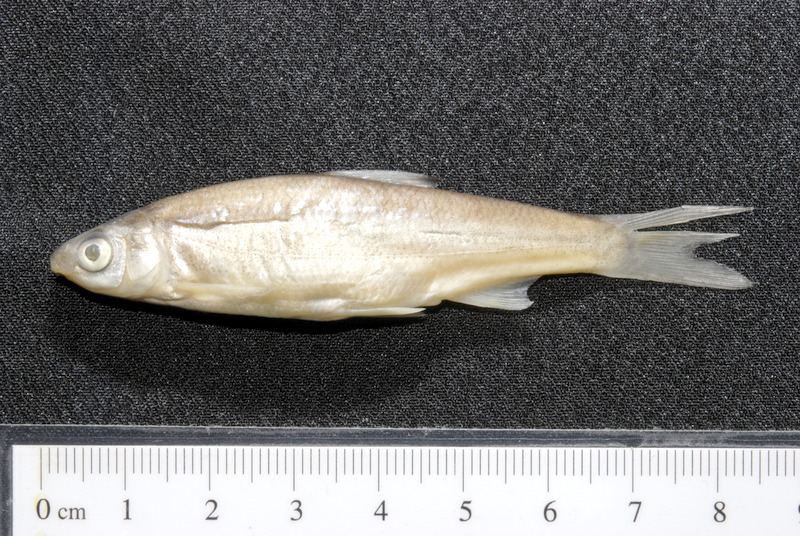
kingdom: Animalia
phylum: Chordata
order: Cypriniformes
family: Cyprinidae
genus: Chondrostoma
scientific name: Chondrostoma nasus
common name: Nase
